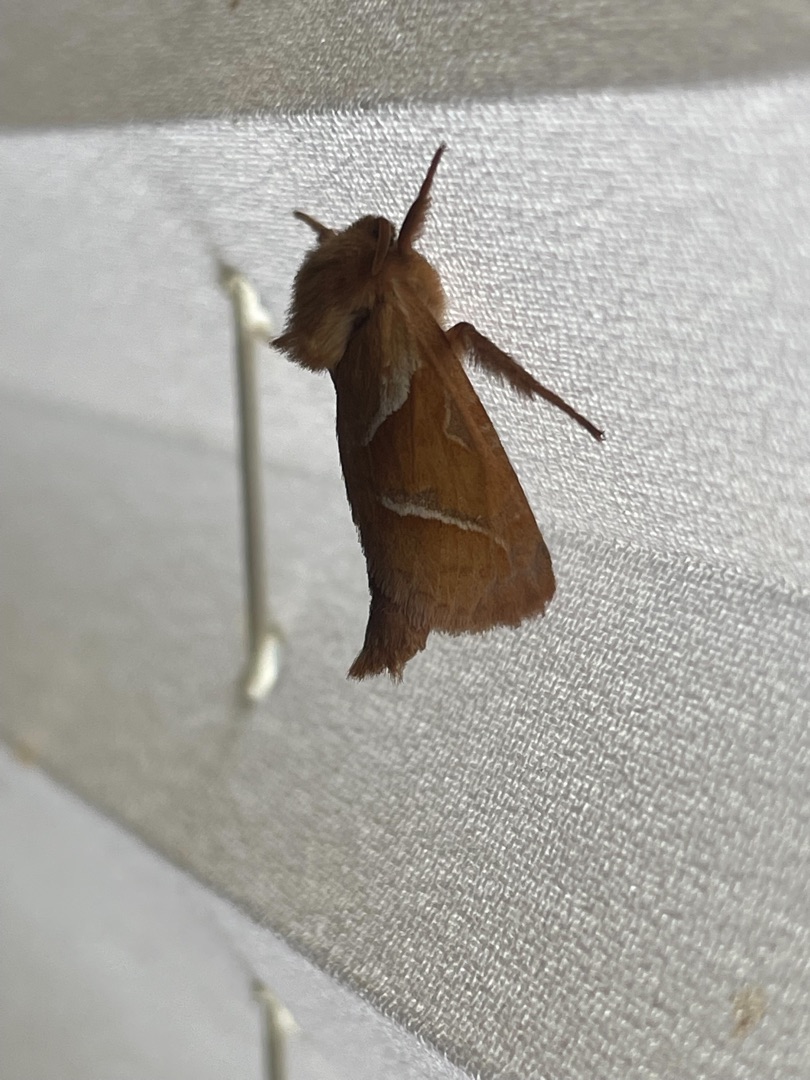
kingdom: Animalia
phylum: Arthropoda
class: Insecta
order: Lepidoptera
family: Hepialidae
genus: Triodia
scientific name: Triodia sylvina
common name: Skræpperodæder
